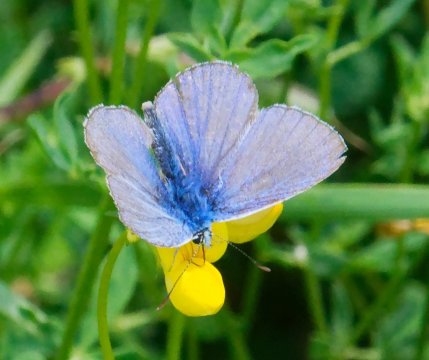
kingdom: Animalia
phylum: Arthropoda
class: Insecta
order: Lepidoptera
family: Lycaenidae
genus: Polyommatus
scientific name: Polyommatus icarus
